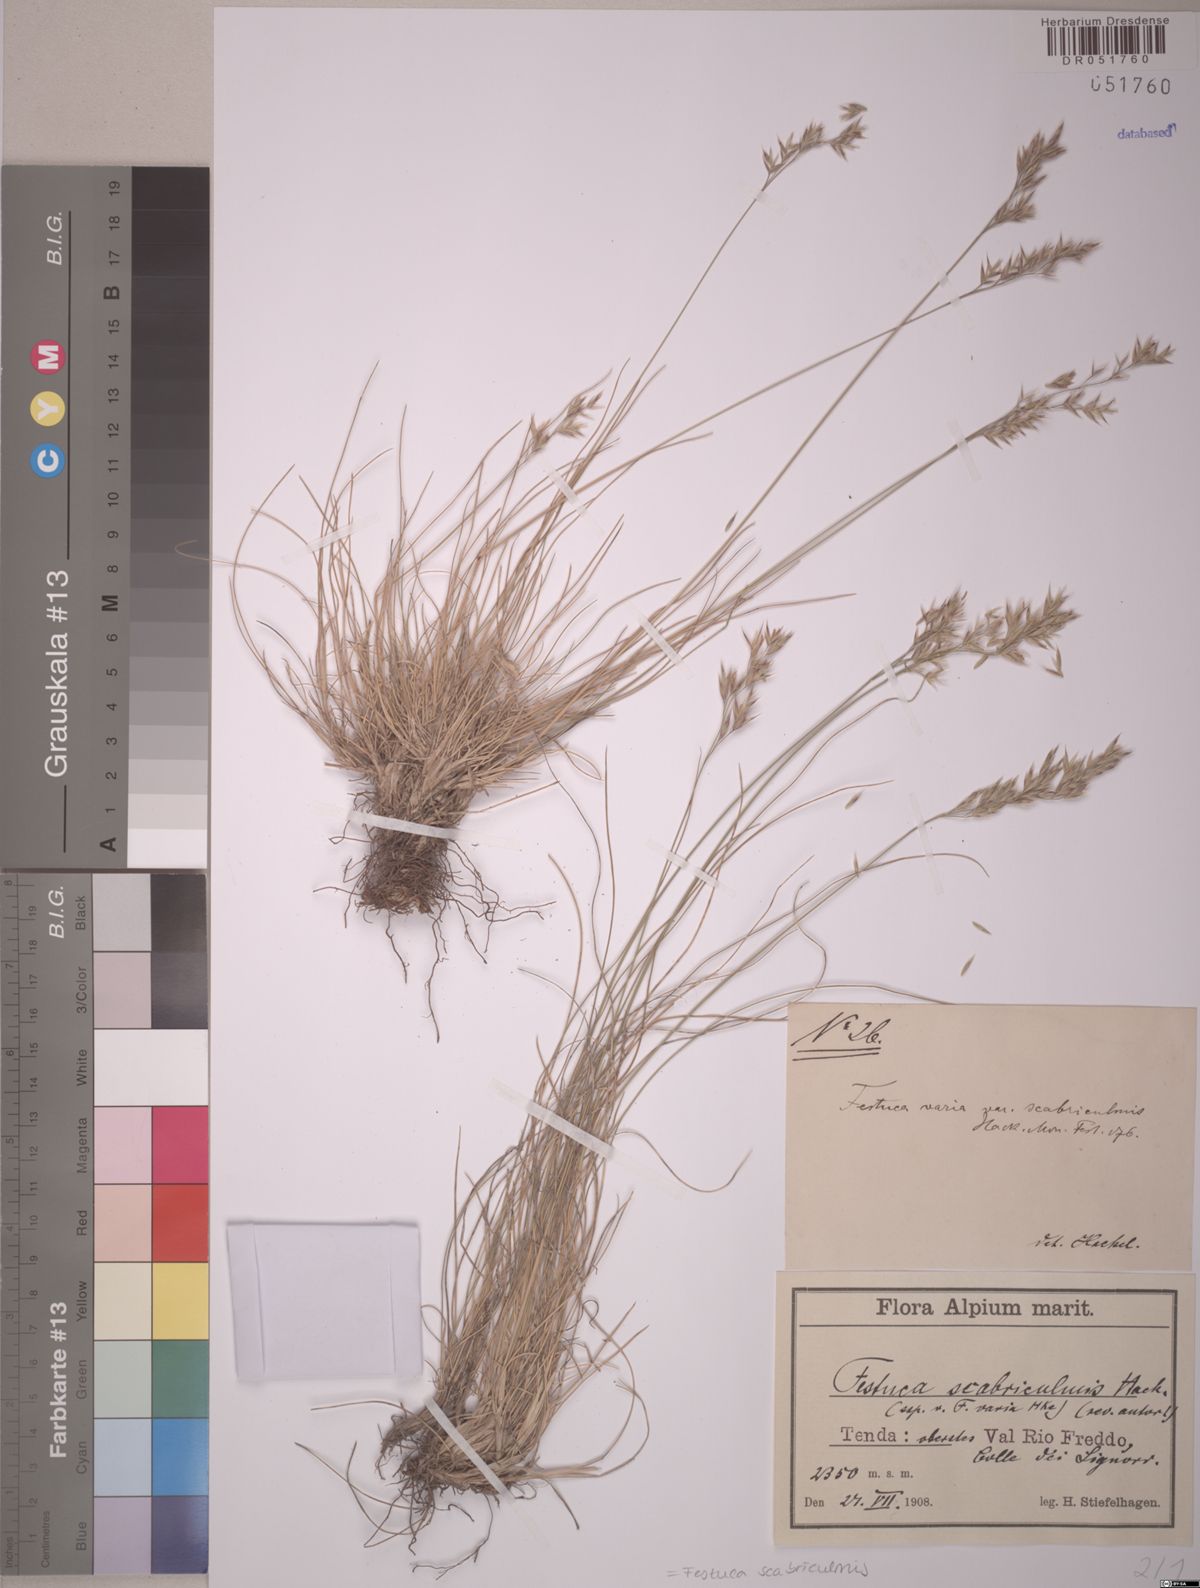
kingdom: Plantae
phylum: Tracheophyta
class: Liliopsida
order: Poales
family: Poaceae
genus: Festuca
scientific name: Festuca scabriculmis
